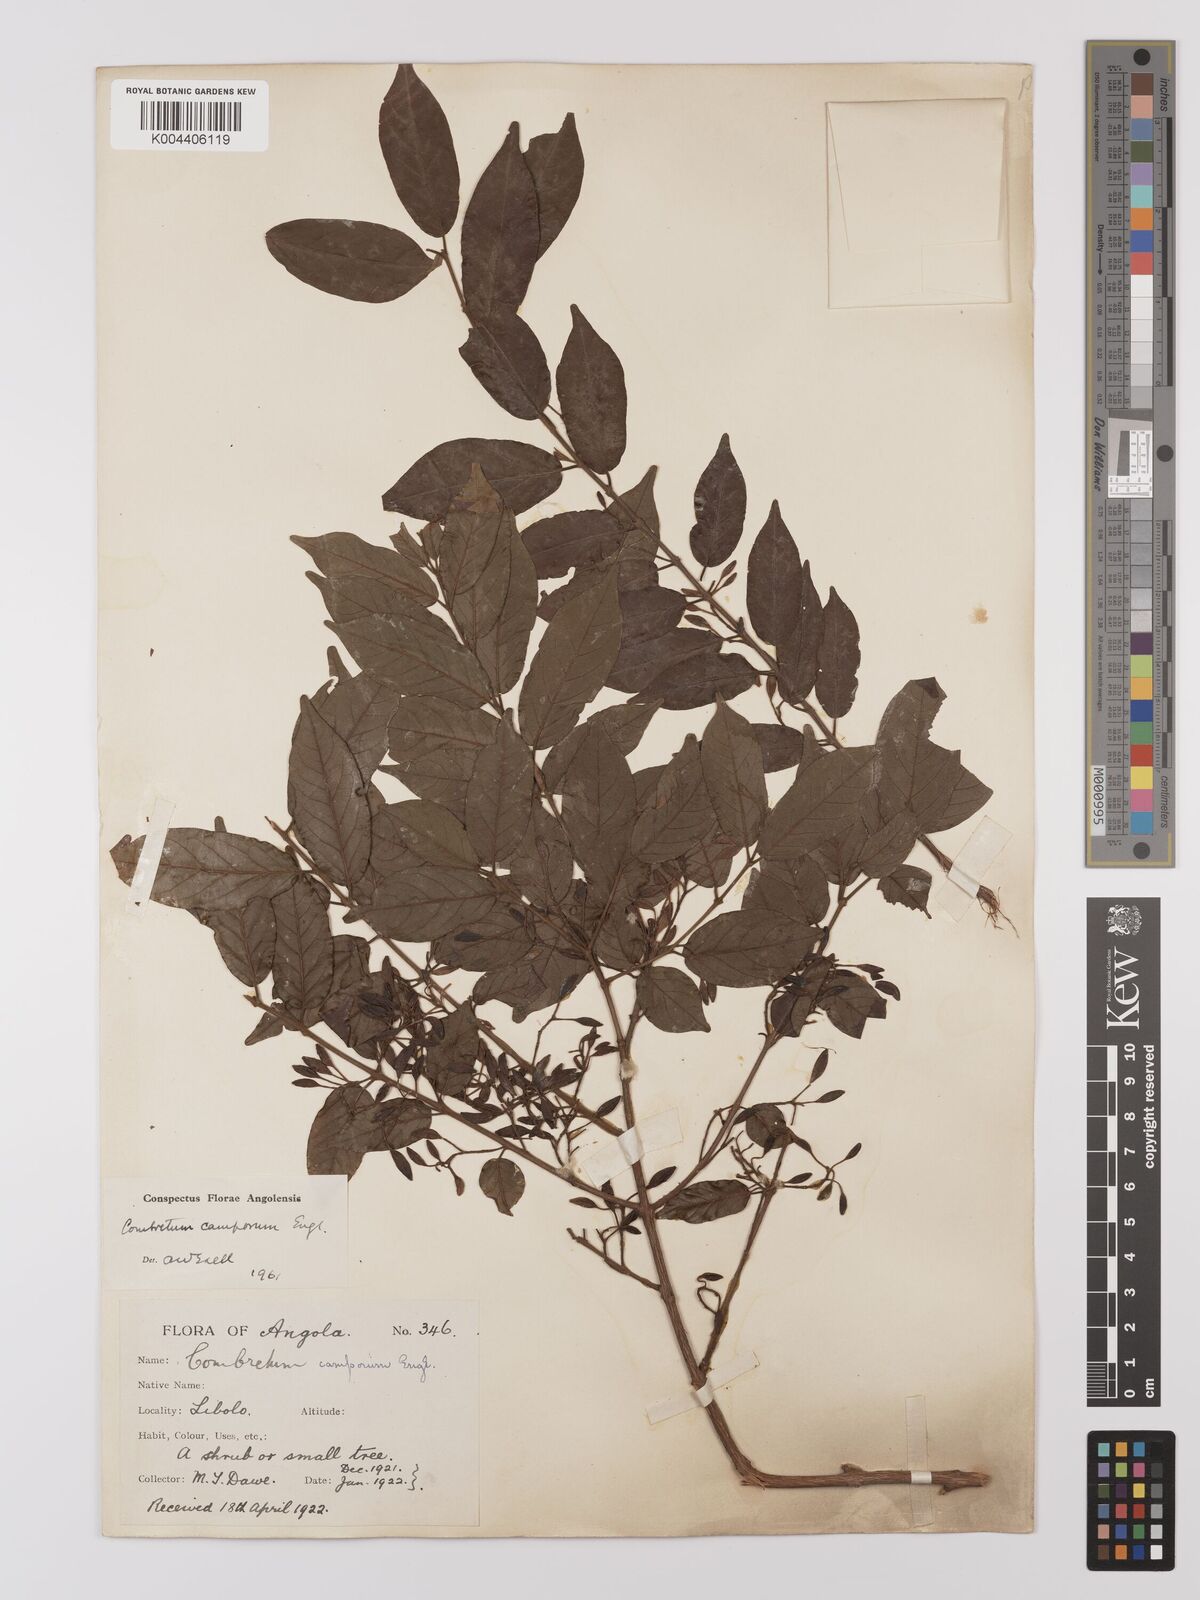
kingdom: Plantae
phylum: Tracheophyta
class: Magnoliopsida
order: Myrtales
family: Combretaceae
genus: Combretum
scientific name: Combretum camporum
